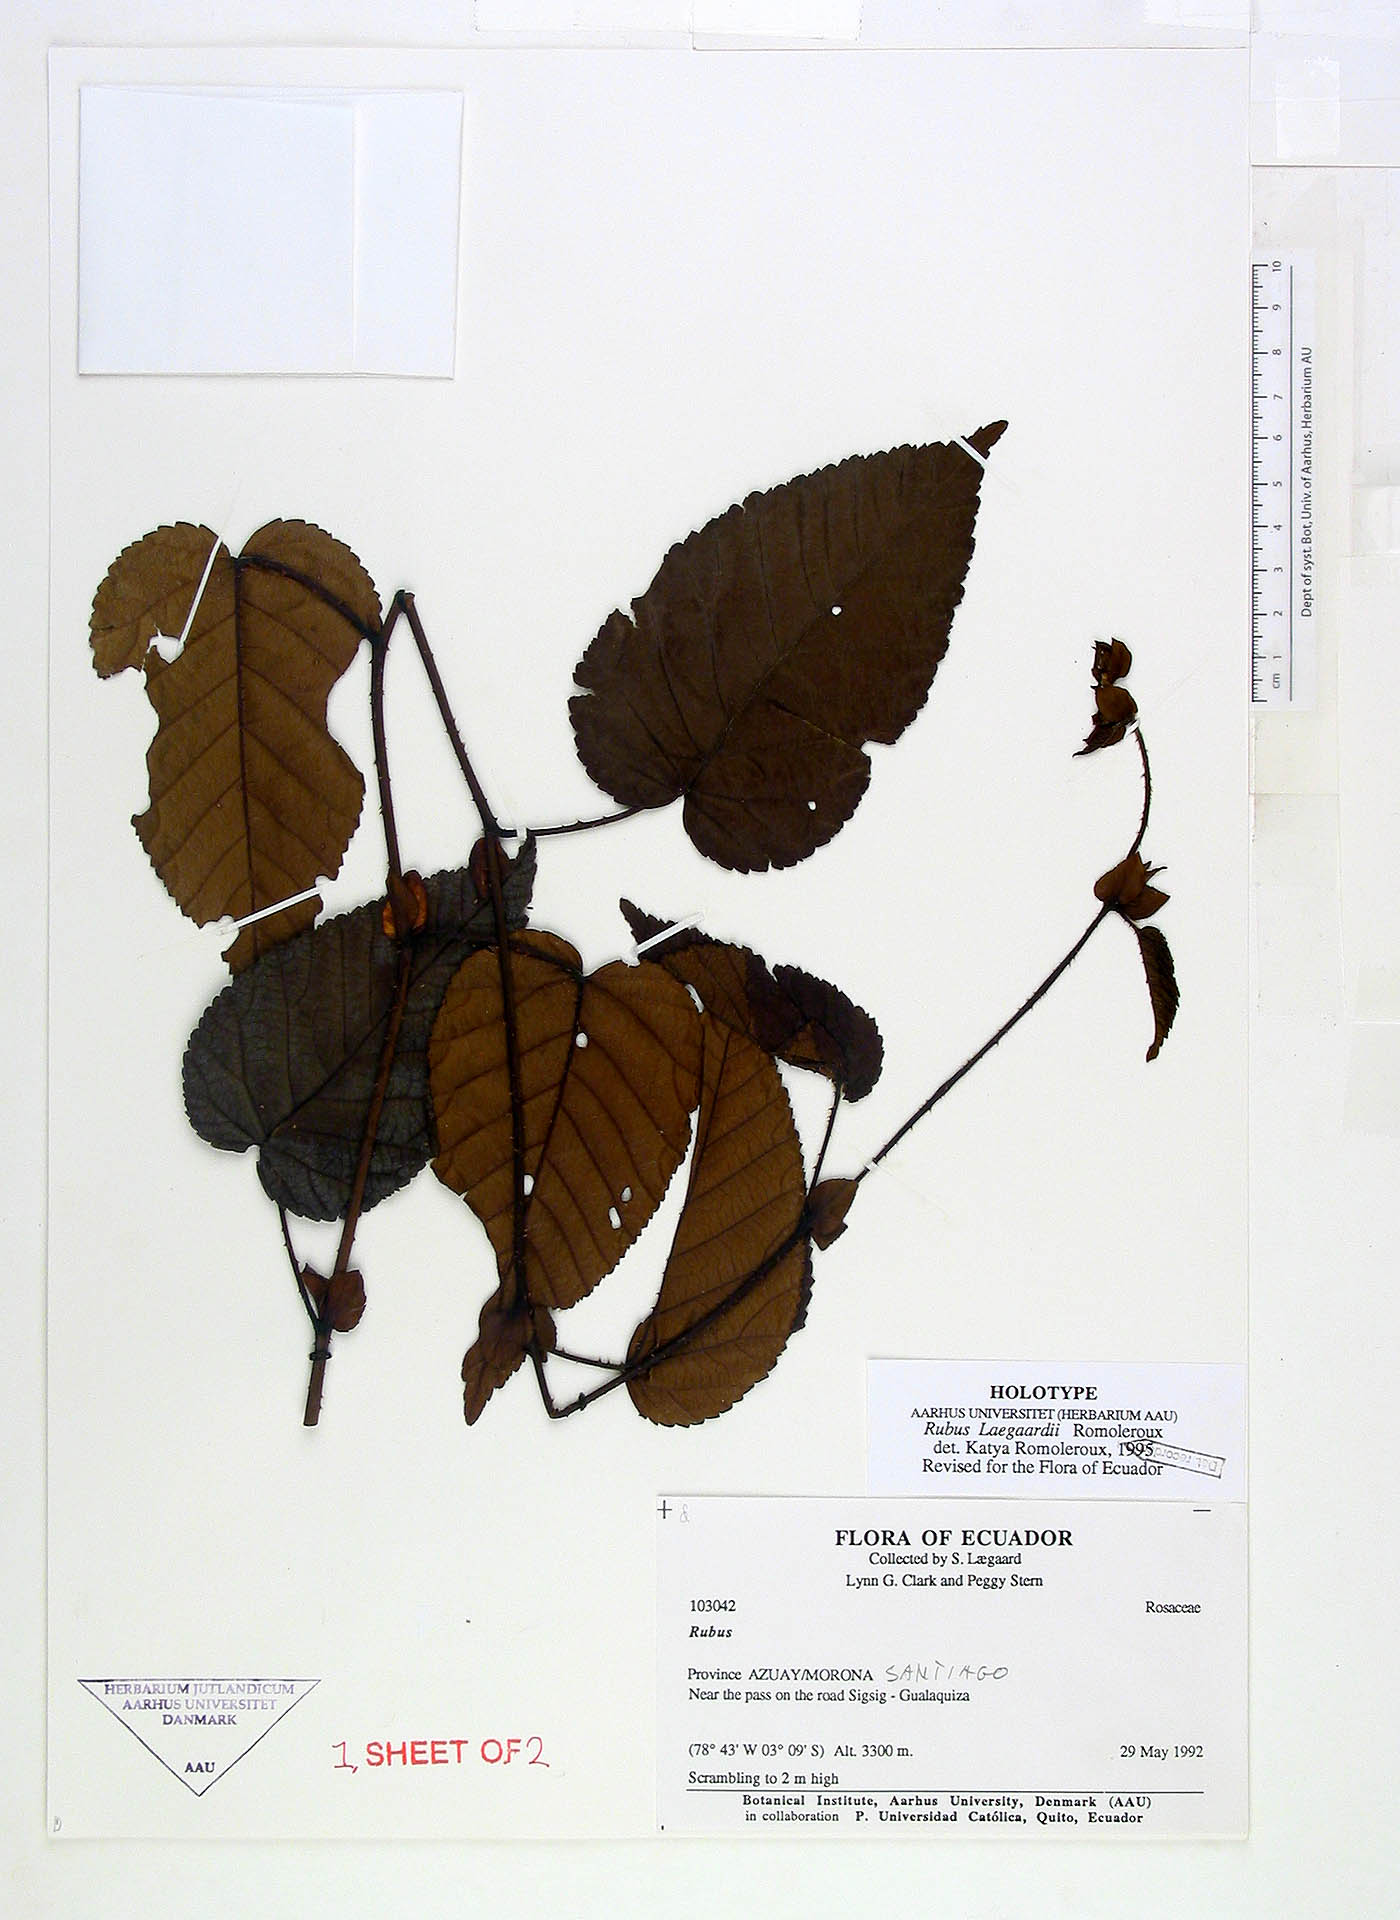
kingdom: Plantae
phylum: Tracheophyta
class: Magnoliopsida
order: Rosales
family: Rosaceae
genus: Rubus
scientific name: Rubus laegaardii
